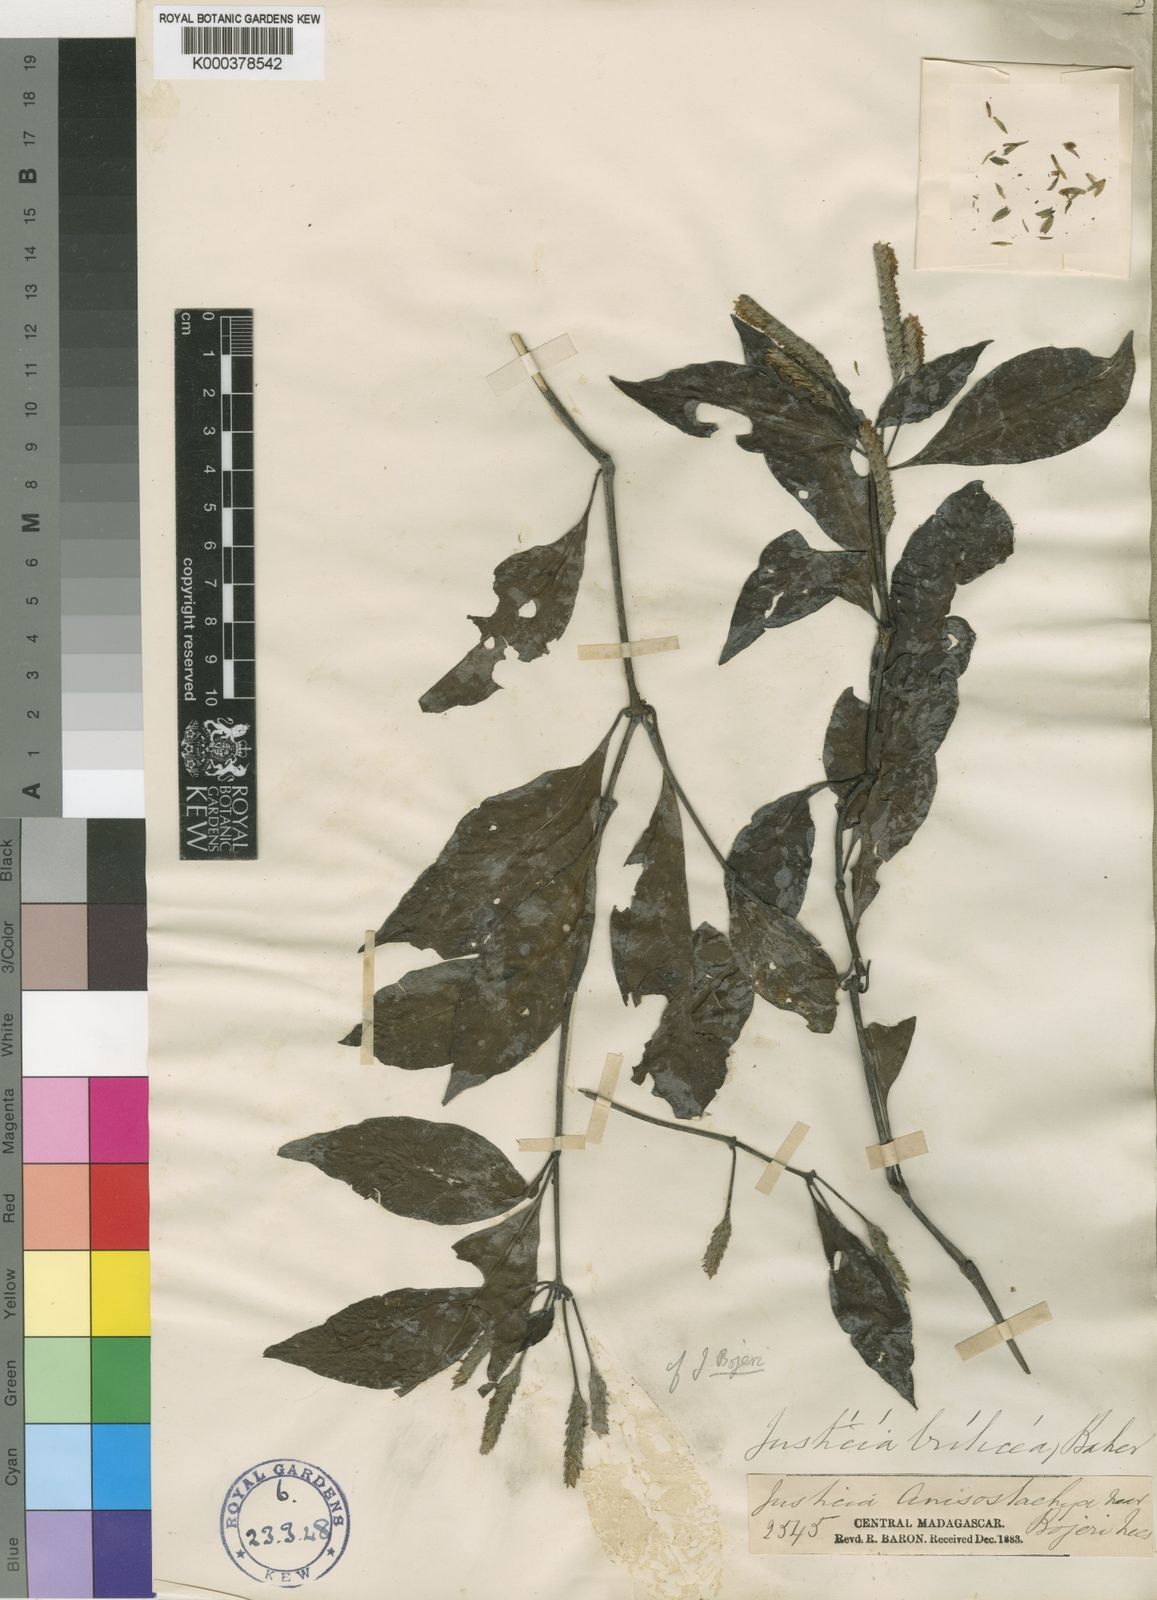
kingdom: Plantae
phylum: Tracheophyta
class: Magnoliopsida
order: Lamiales
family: Acanthaceae
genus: Anisostachya
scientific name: Anisostachya triticea
